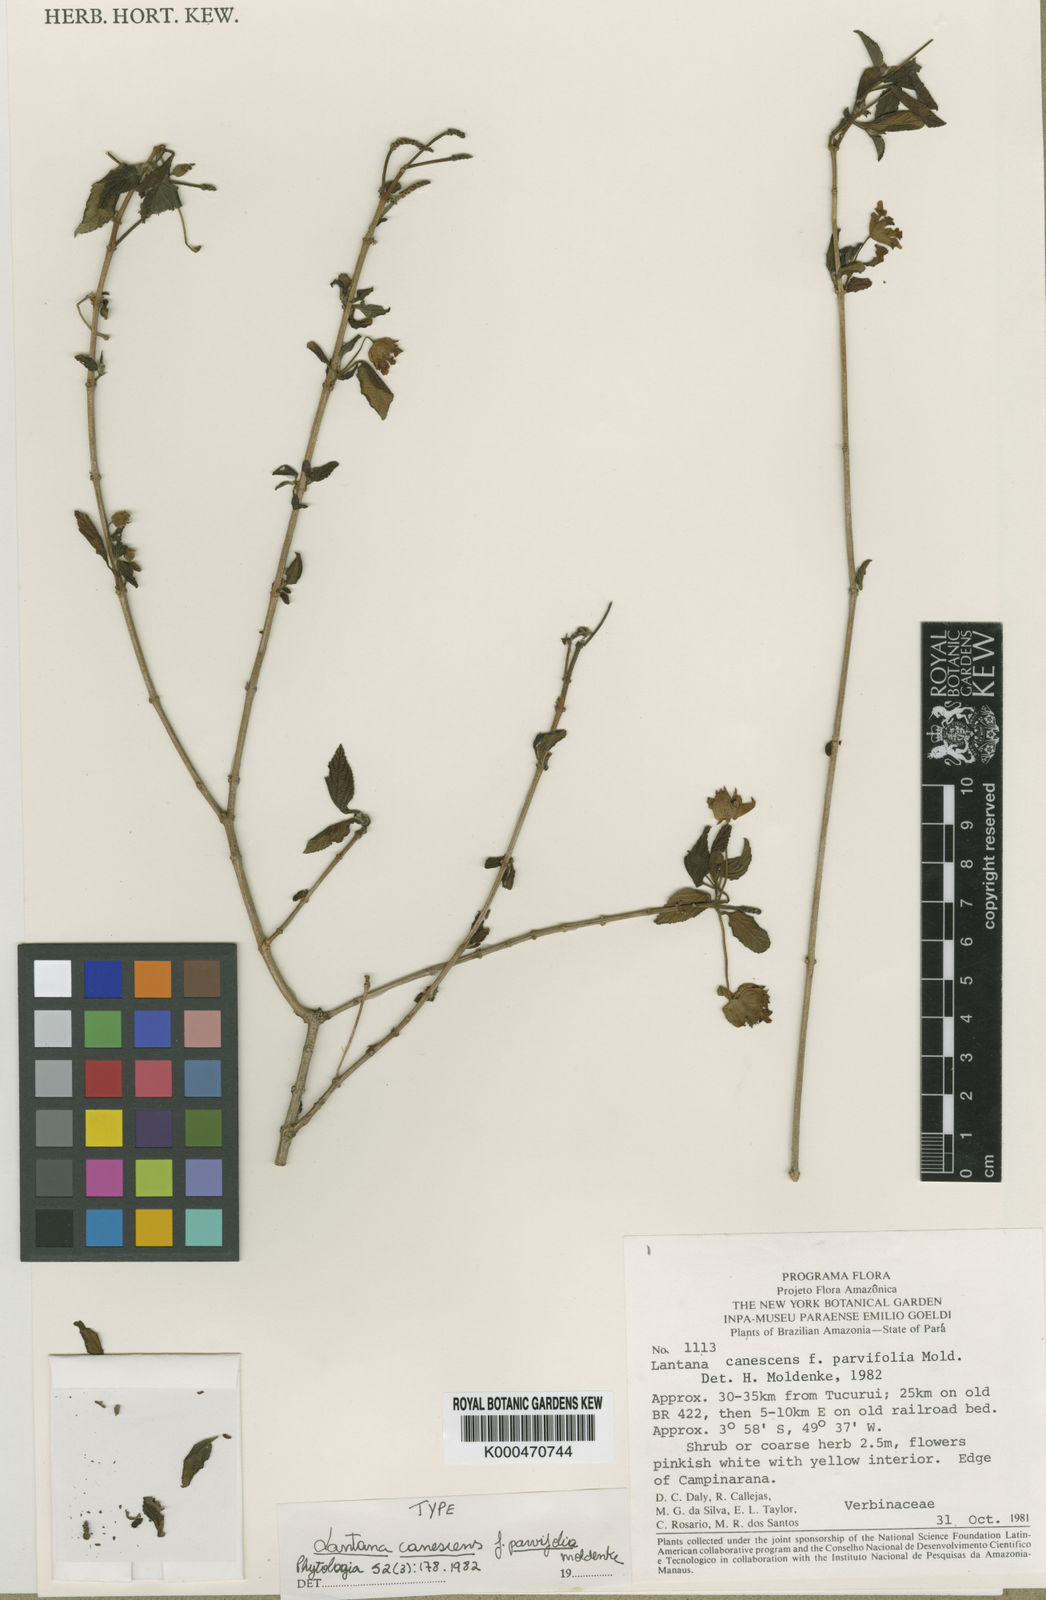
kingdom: Plantae
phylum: Tracheophyta
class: Magnoliopsida
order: Lamiales
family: Verbenaceae
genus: Lantana
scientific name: Lantana canescens
